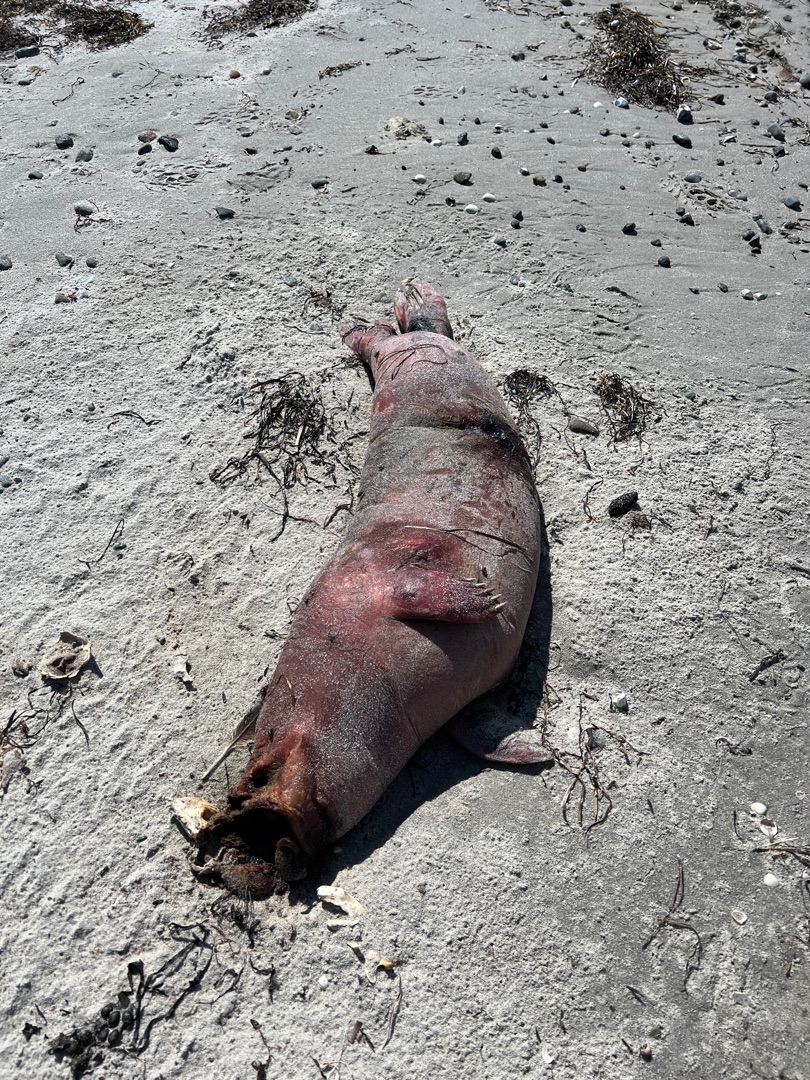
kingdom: Animalia
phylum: Chordata
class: Mammalia
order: Carnivora
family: Phocidae
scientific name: Phocidae
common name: Ægte sæler
